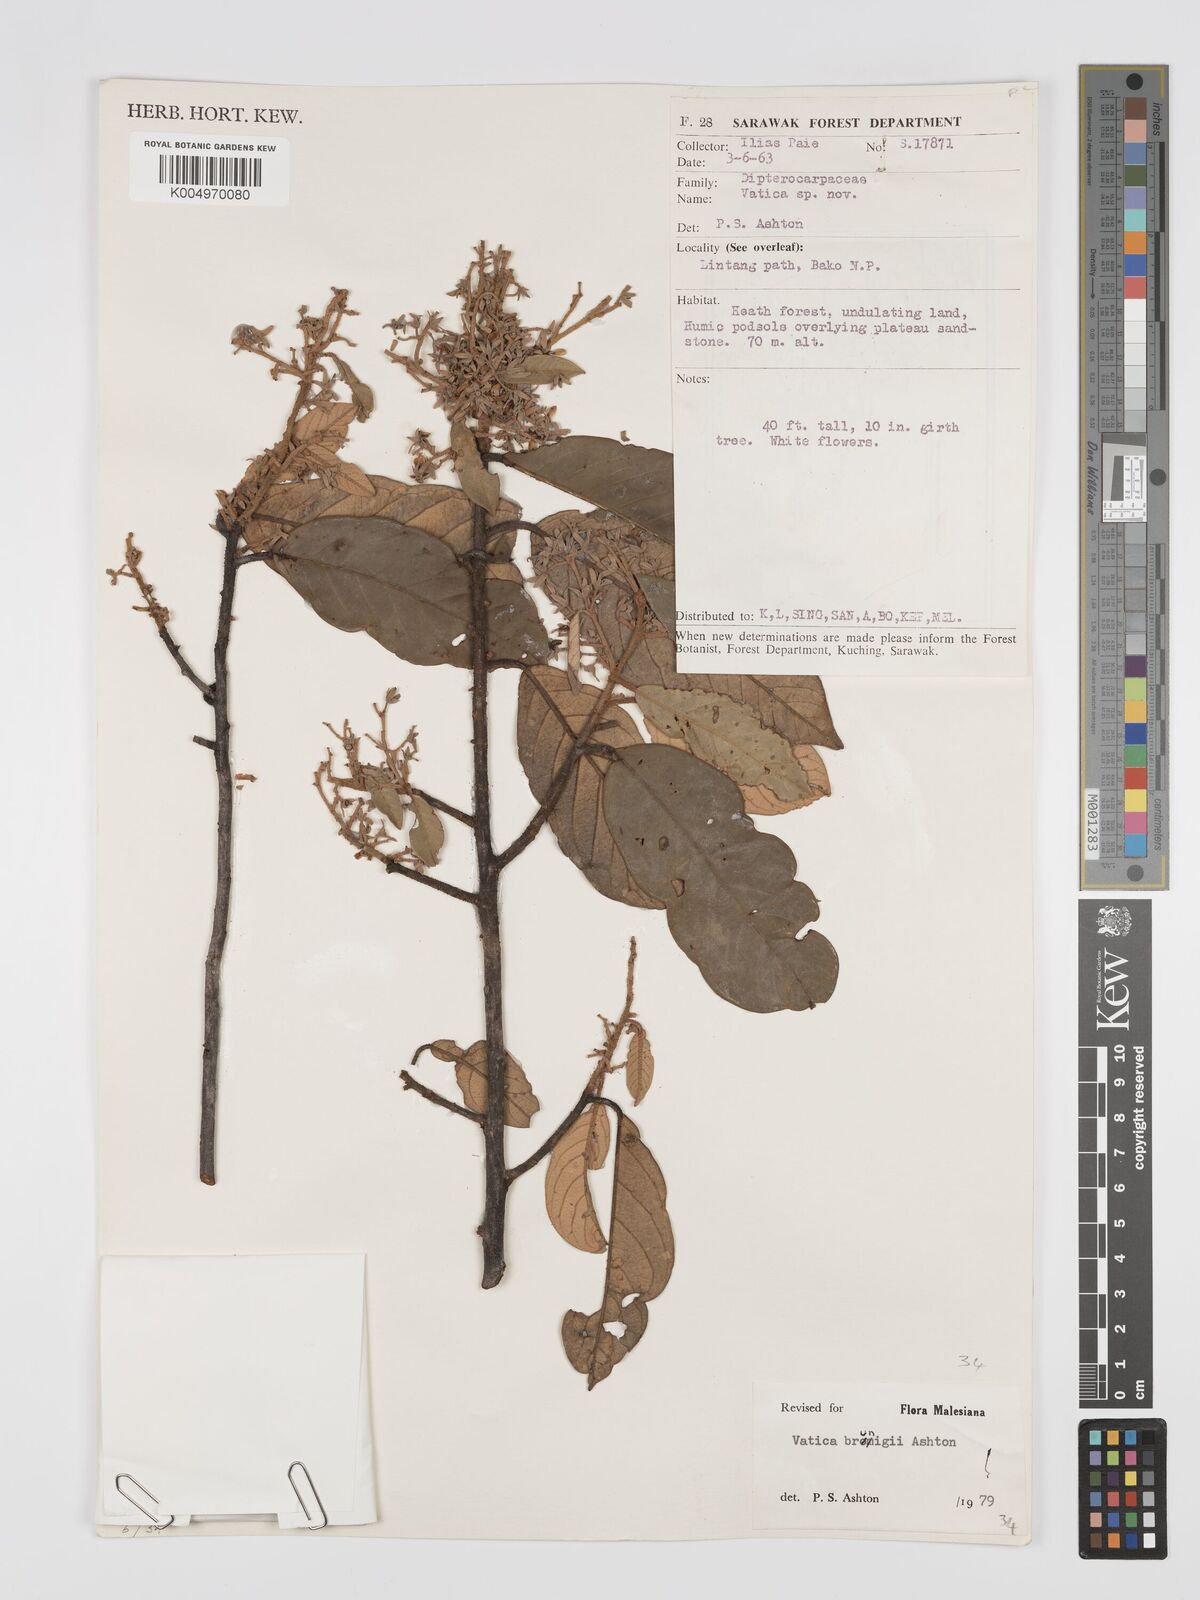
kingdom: Plantae
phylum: Tracheophyta
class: Magnoliopsida
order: Malvales
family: Dipterocarpaceae
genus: Vatica
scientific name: Vatica brunigii
